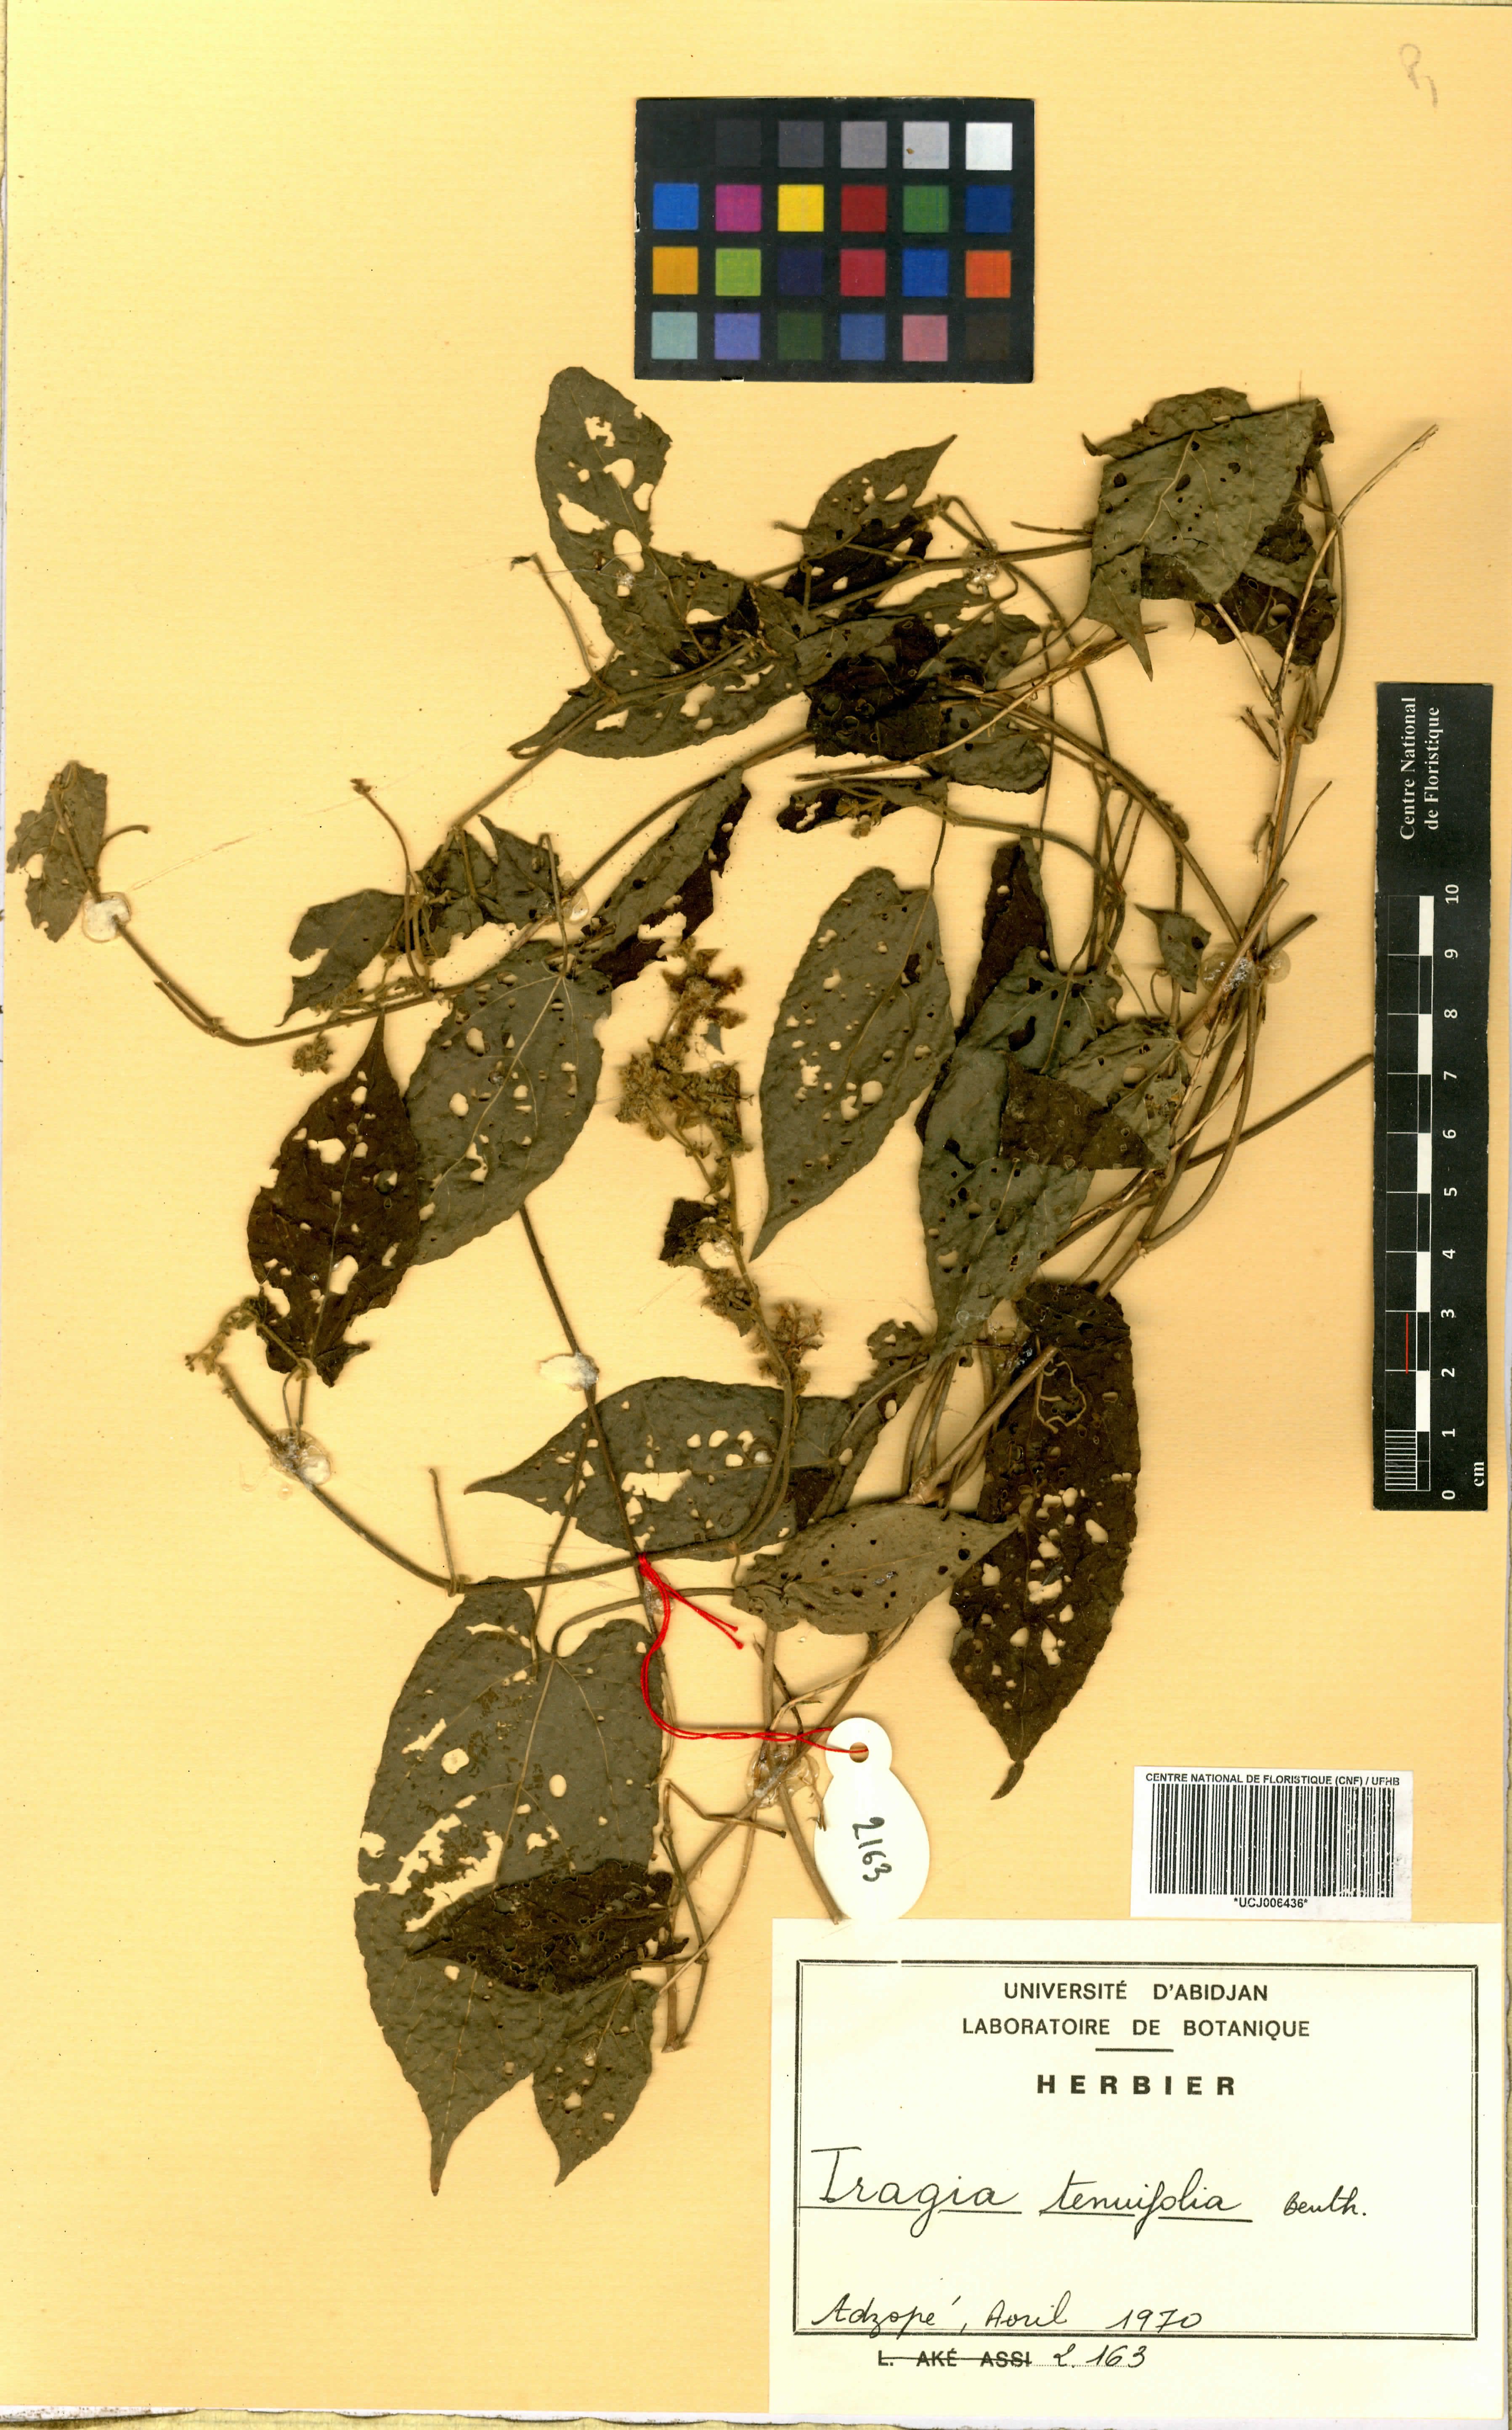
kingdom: Plantae
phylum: Tracheophyta
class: Magnoliopsida
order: Malpighiales
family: Euphorbiaceae
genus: Tragia
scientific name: Tragia tenuifolia
